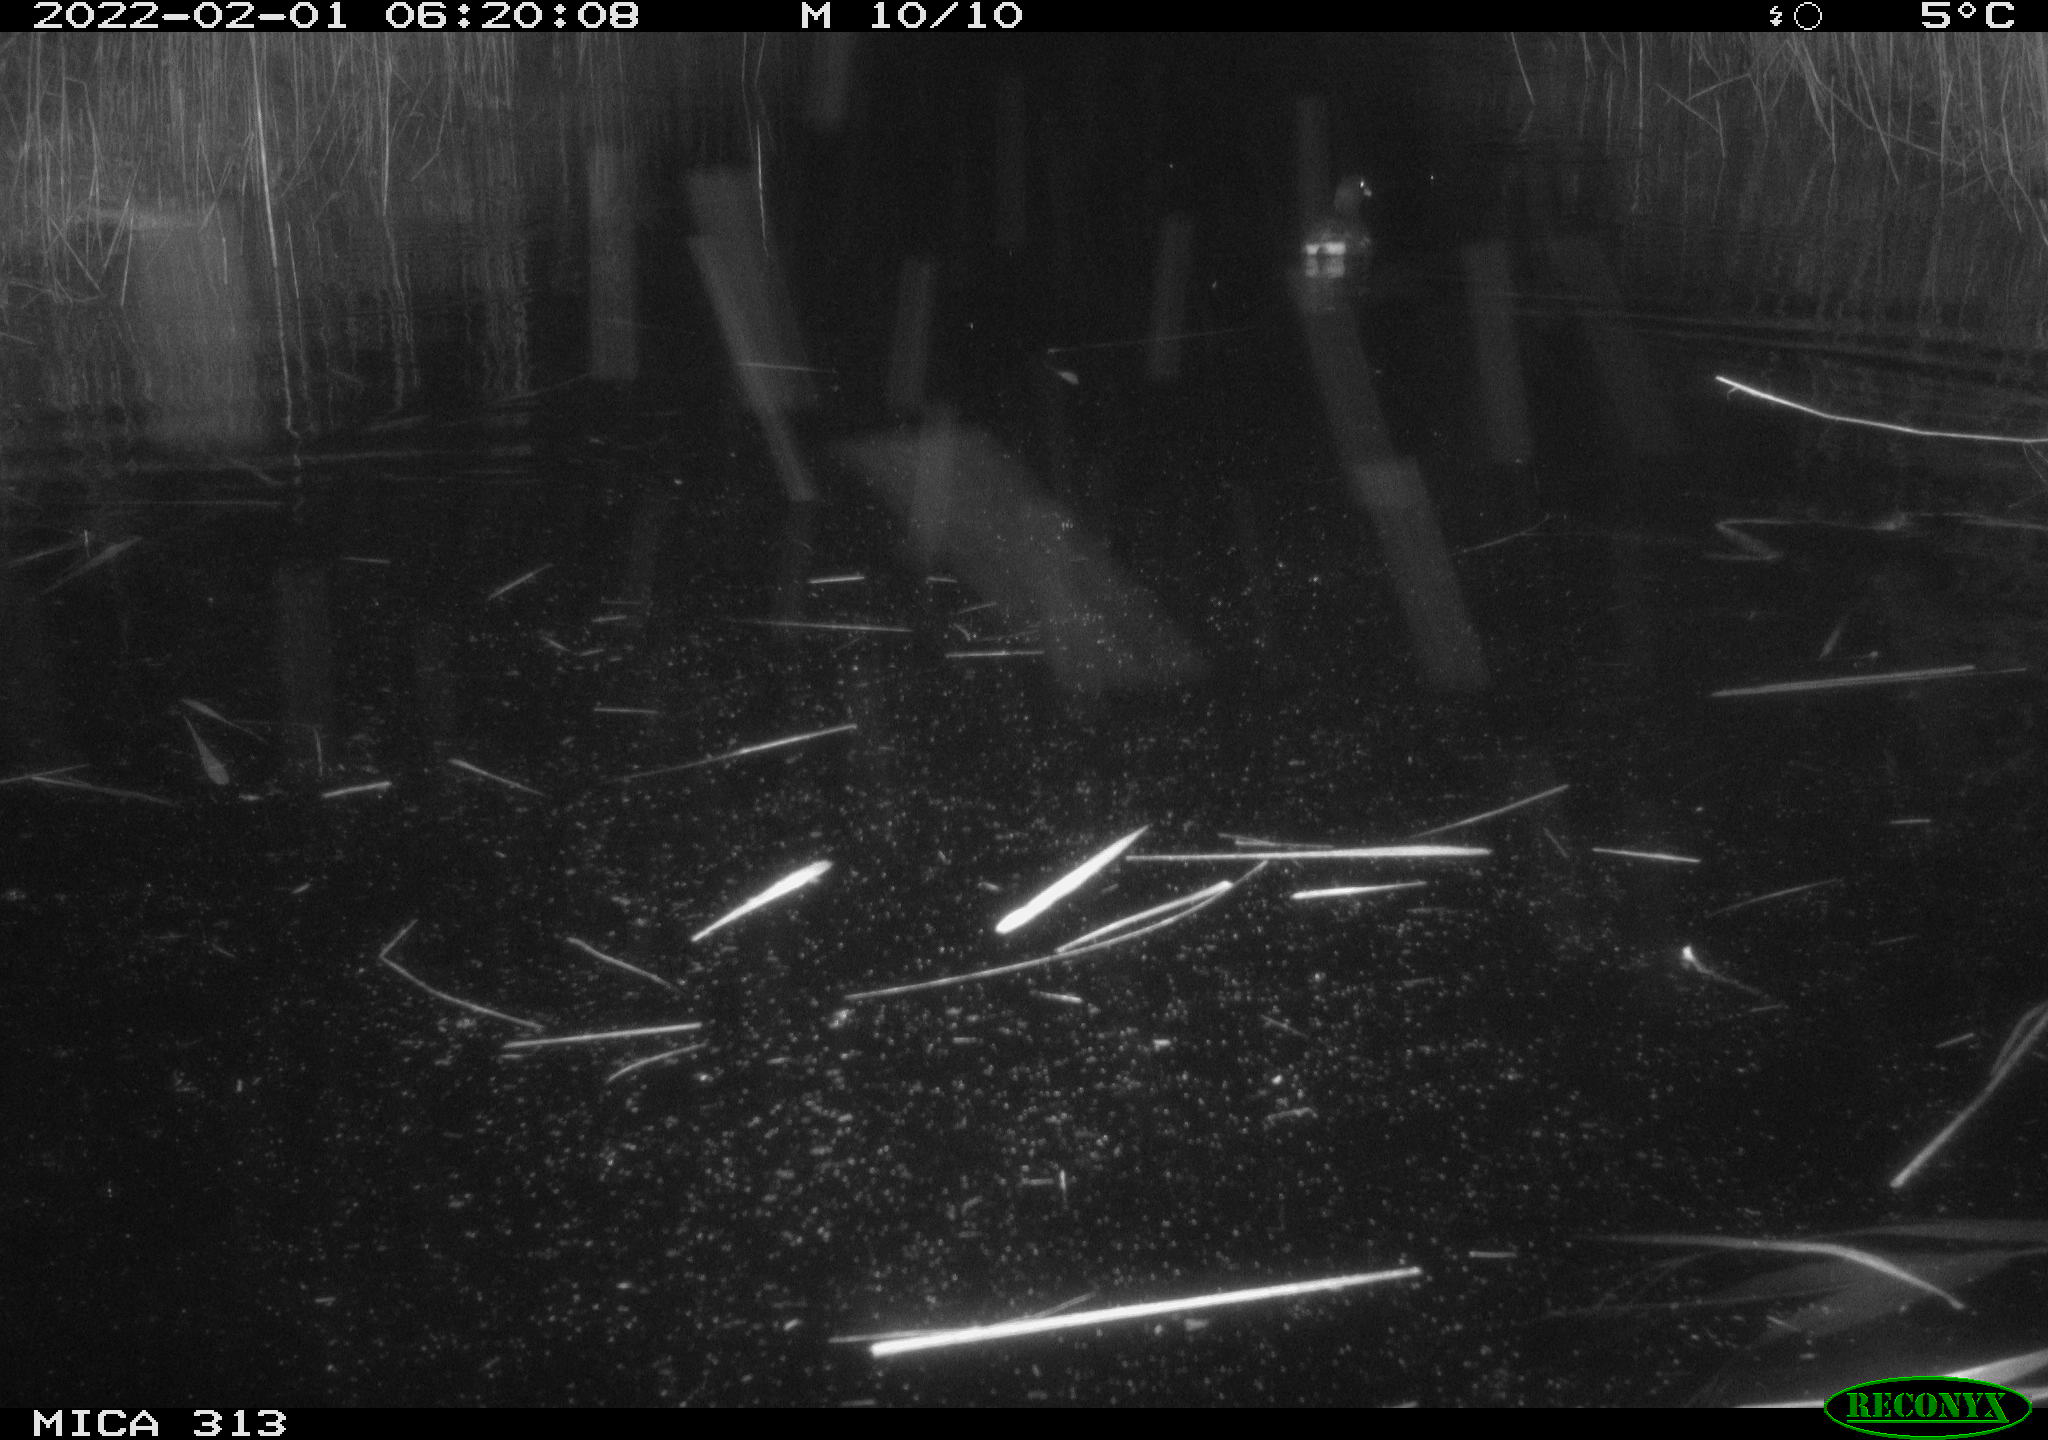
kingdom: Animalia
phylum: Chordata
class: Aves
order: Gruiformes
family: Rallidae
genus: Gallinula
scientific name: Gallinula chloropus
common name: Common moorhen
